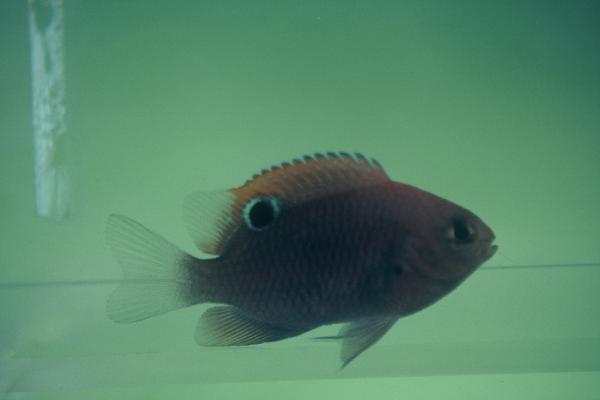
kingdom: Animalia
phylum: Chordata
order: Perciformes
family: Pomacentridae
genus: Pomacentrus
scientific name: Pomacentrus trilineatus
